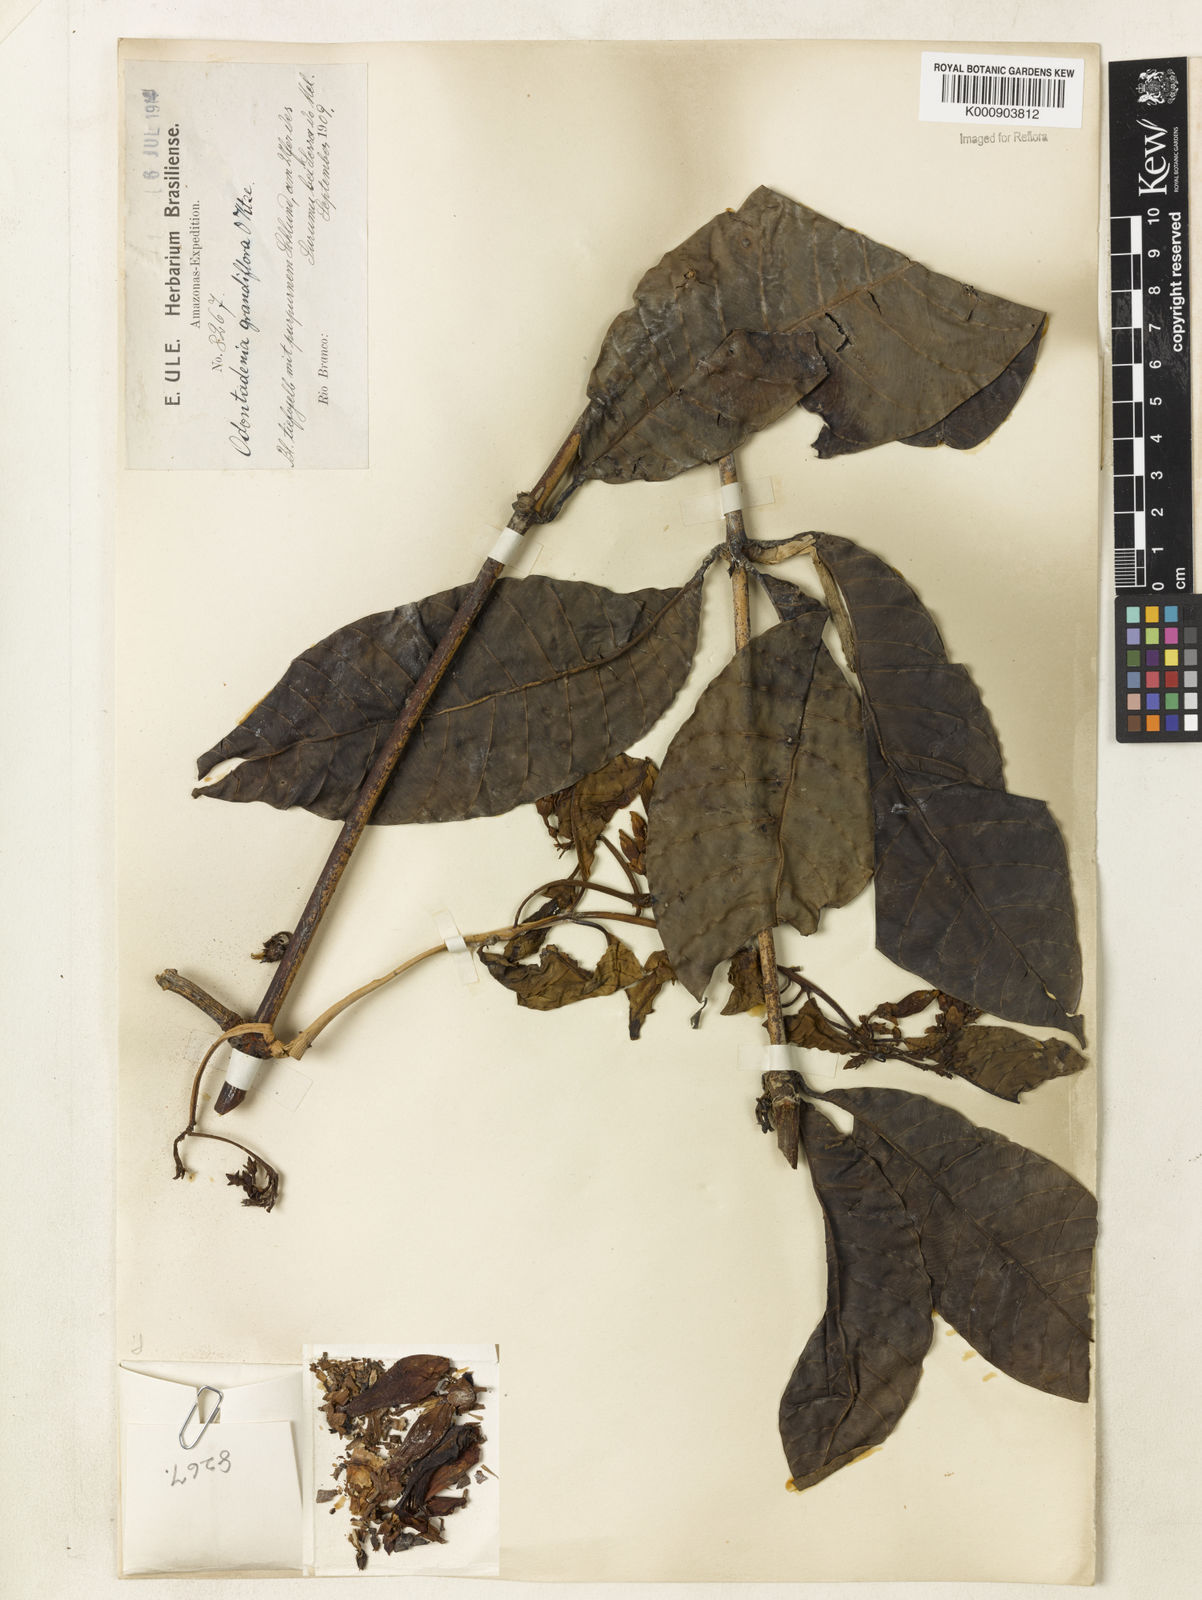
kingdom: Plantae
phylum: Tracheophyta
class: Magnoliopsida
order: Gentianales
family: Apocynaceae
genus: Odontadenia
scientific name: Odontadenia semidigyna
